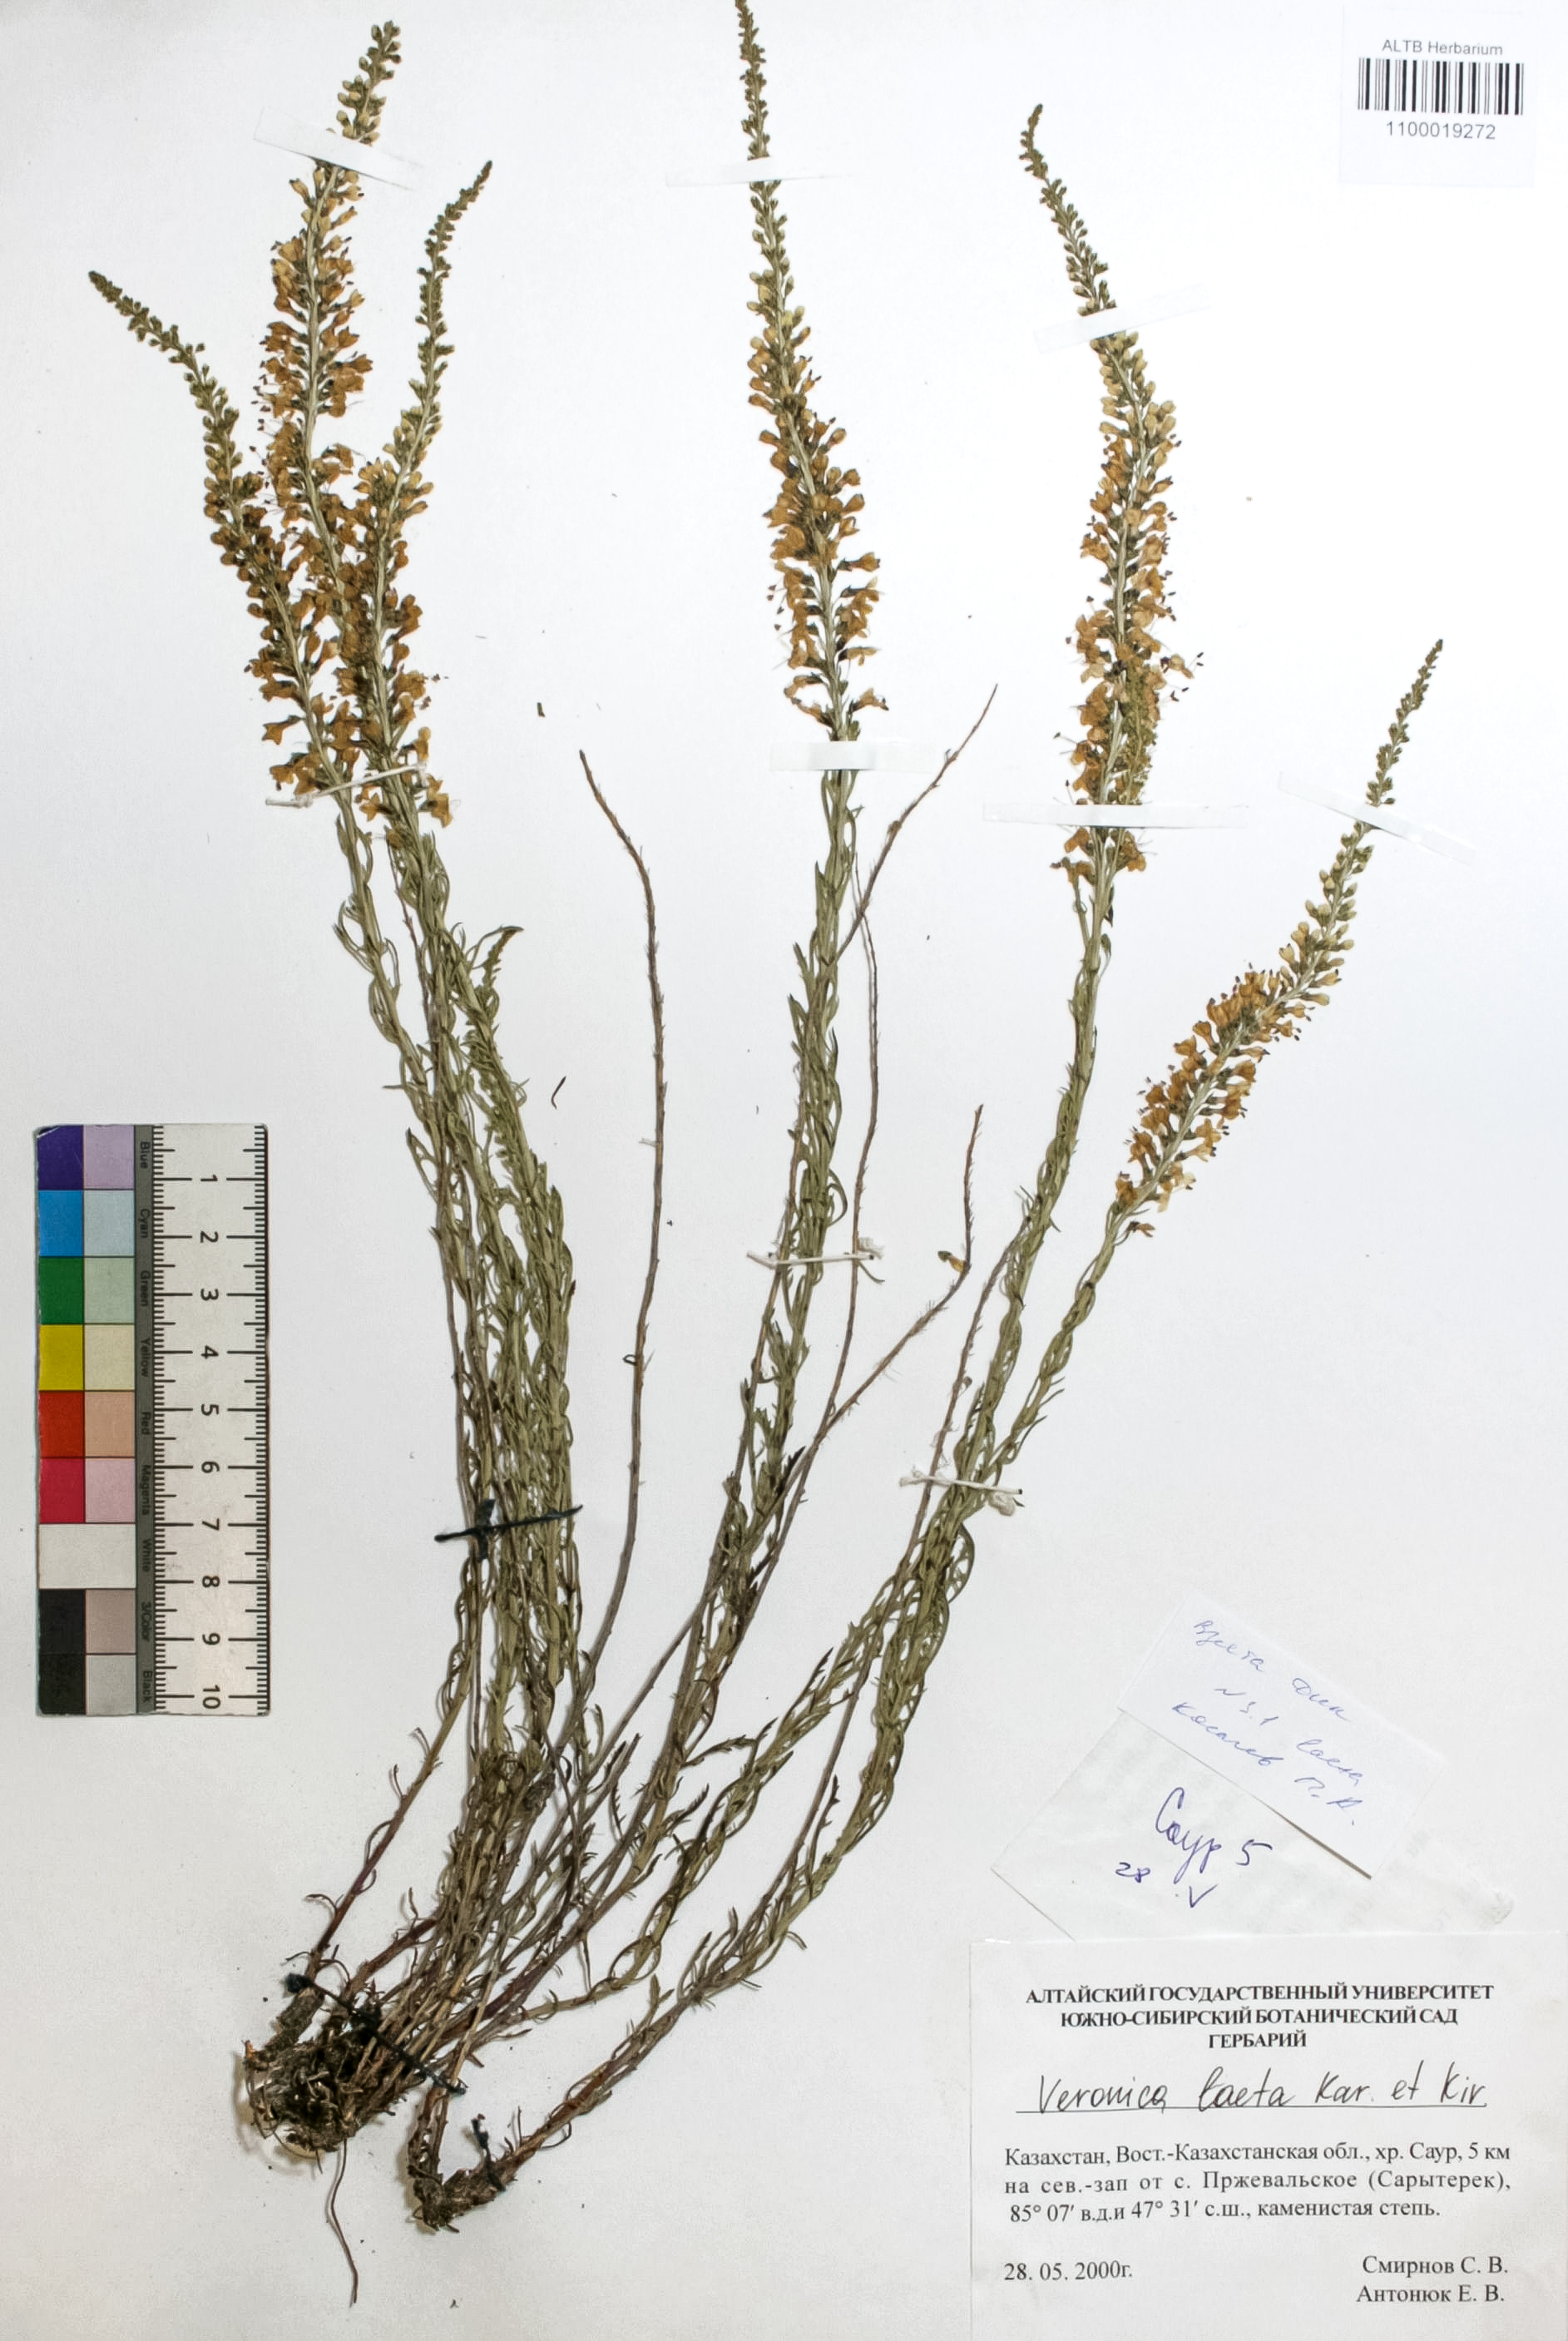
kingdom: Plantae
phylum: Tracheophyta
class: Magnoliopsida
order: Lamiales
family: Plantaginaceae
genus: Veronica
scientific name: Veronica laeta
